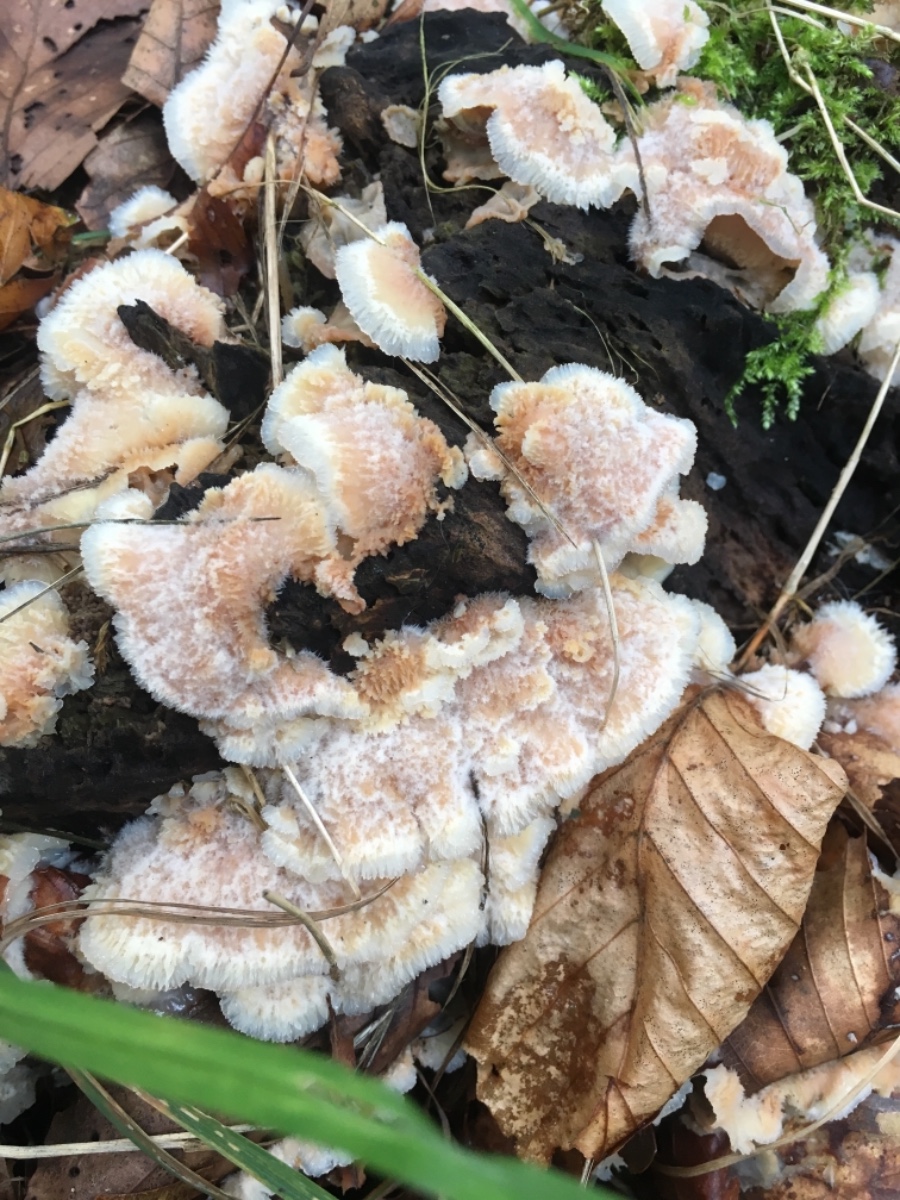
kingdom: Fungi
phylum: Basidiomycota
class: Agaricomycetes
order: Polyporales
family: Meruliaceae
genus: Phlebia
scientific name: Phlebia tremellosa
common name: bævrende åresvamp
